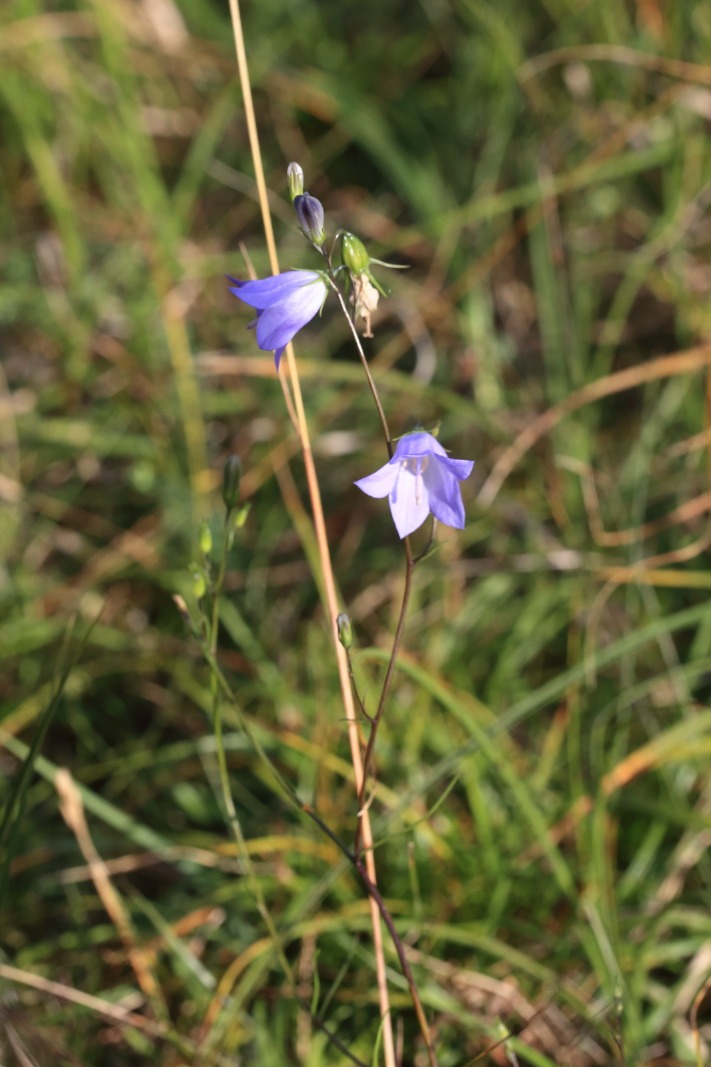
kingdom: Plantae
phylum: Tracheophyta
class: Magnoliopsida
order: Asterales
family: Campanulaceae
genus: Campanula
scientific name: Campanula rotundifolia
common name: Liden klokke
